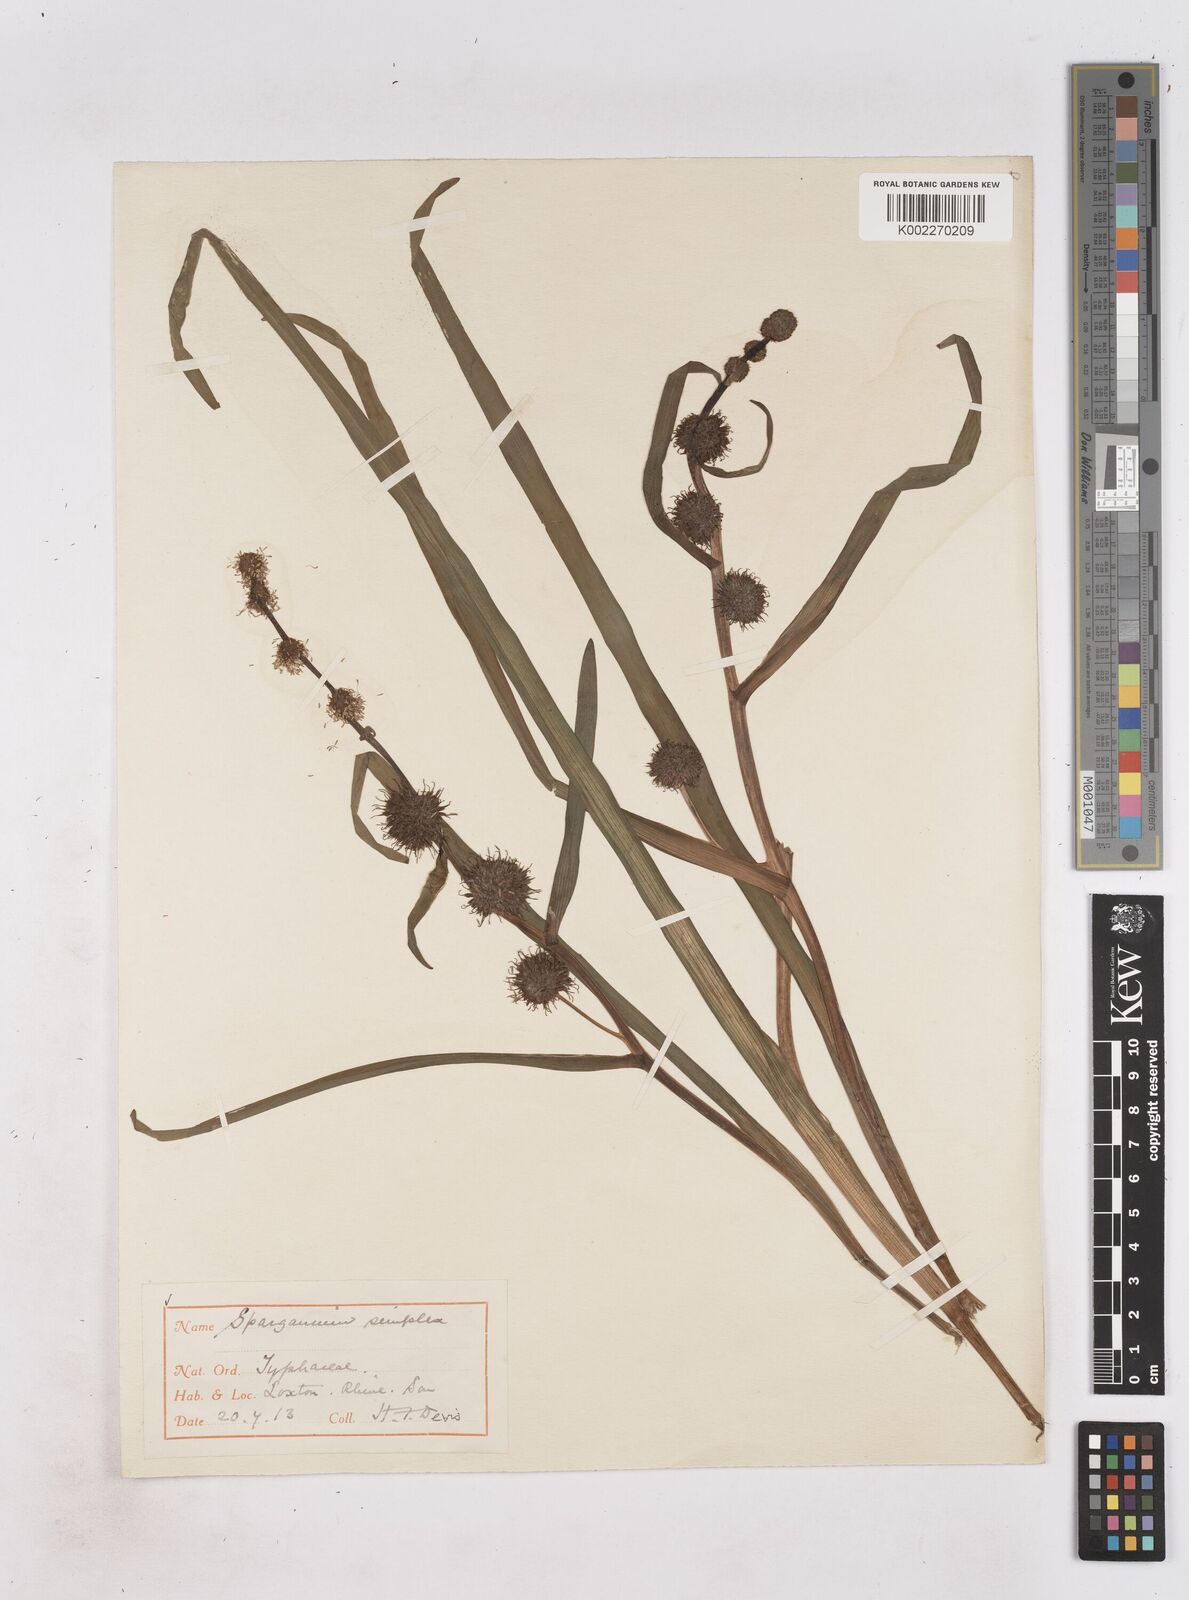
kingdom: Plantae
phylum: Tracheophyta
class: Liliopsida
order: Poales
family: Typhaceae
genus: Sparganium
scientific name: Sparganium emersum
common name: Unbranched bur-reed
